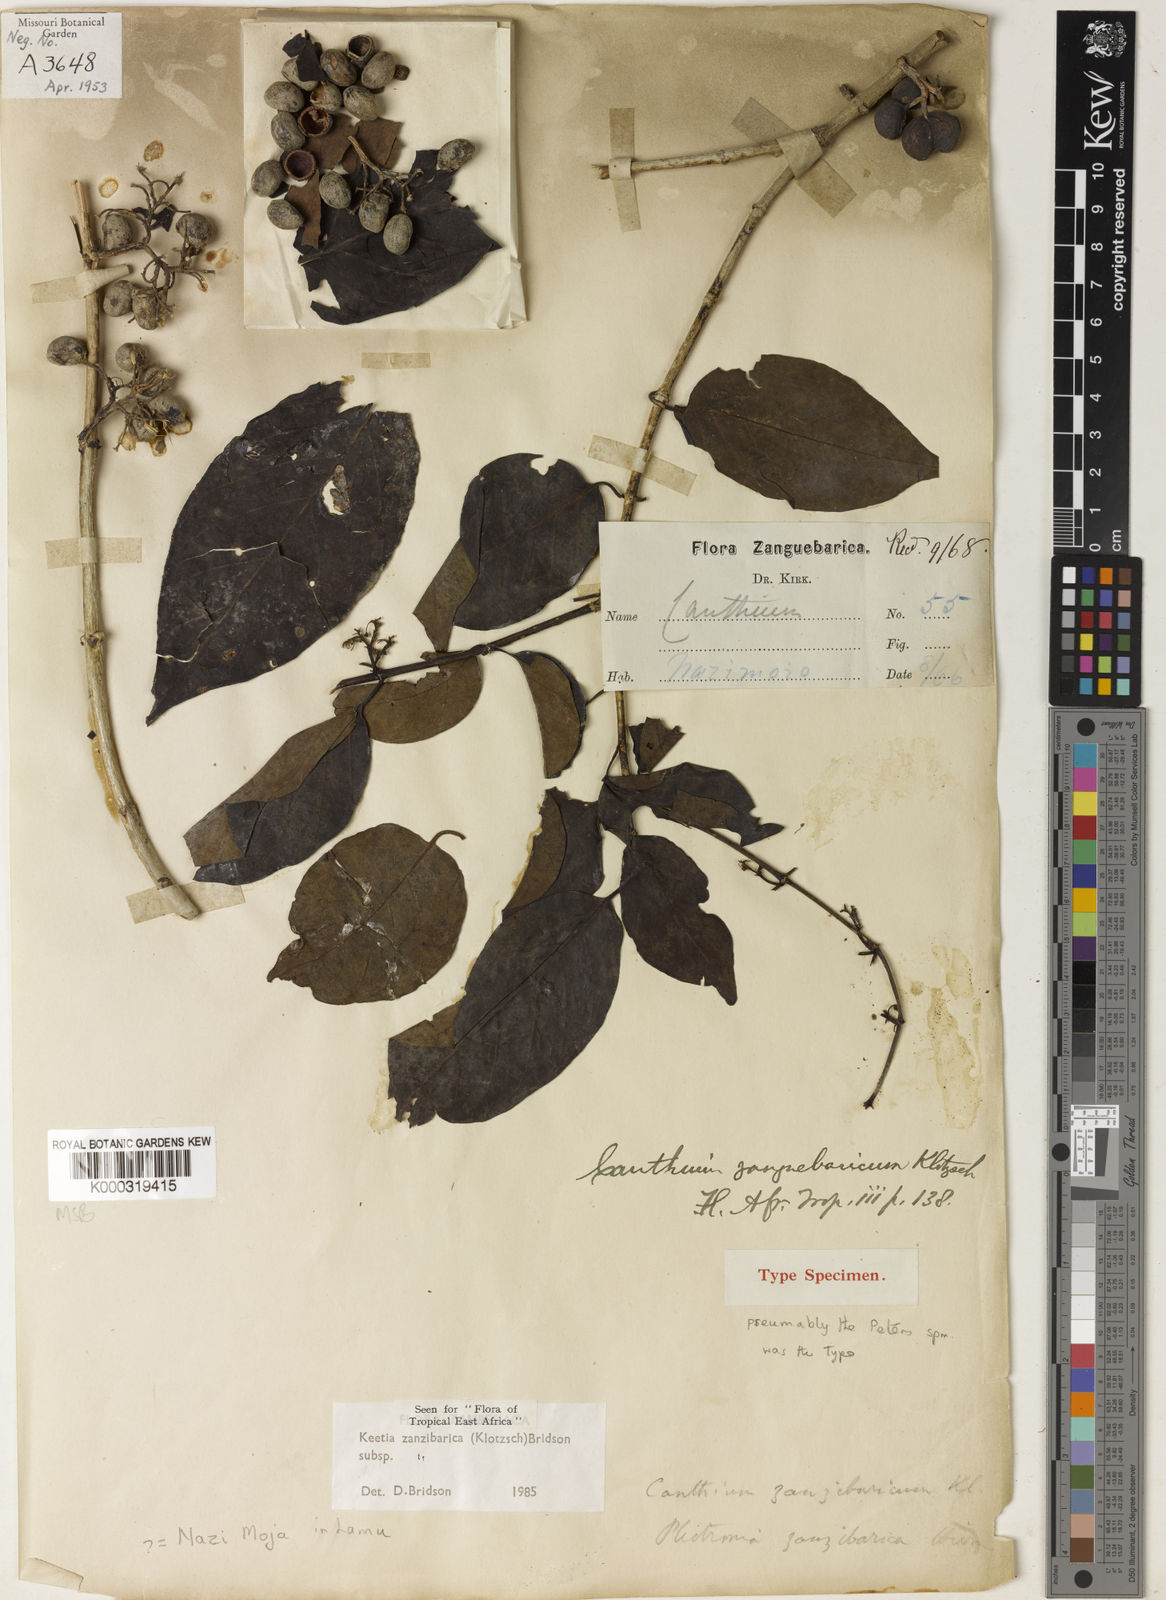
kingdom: Plantae
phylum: Tracheophyta
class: Magnoliopsida
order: Gentianales
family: Rubiaceae
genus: Keetia
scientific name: Keetia zanzibarica
